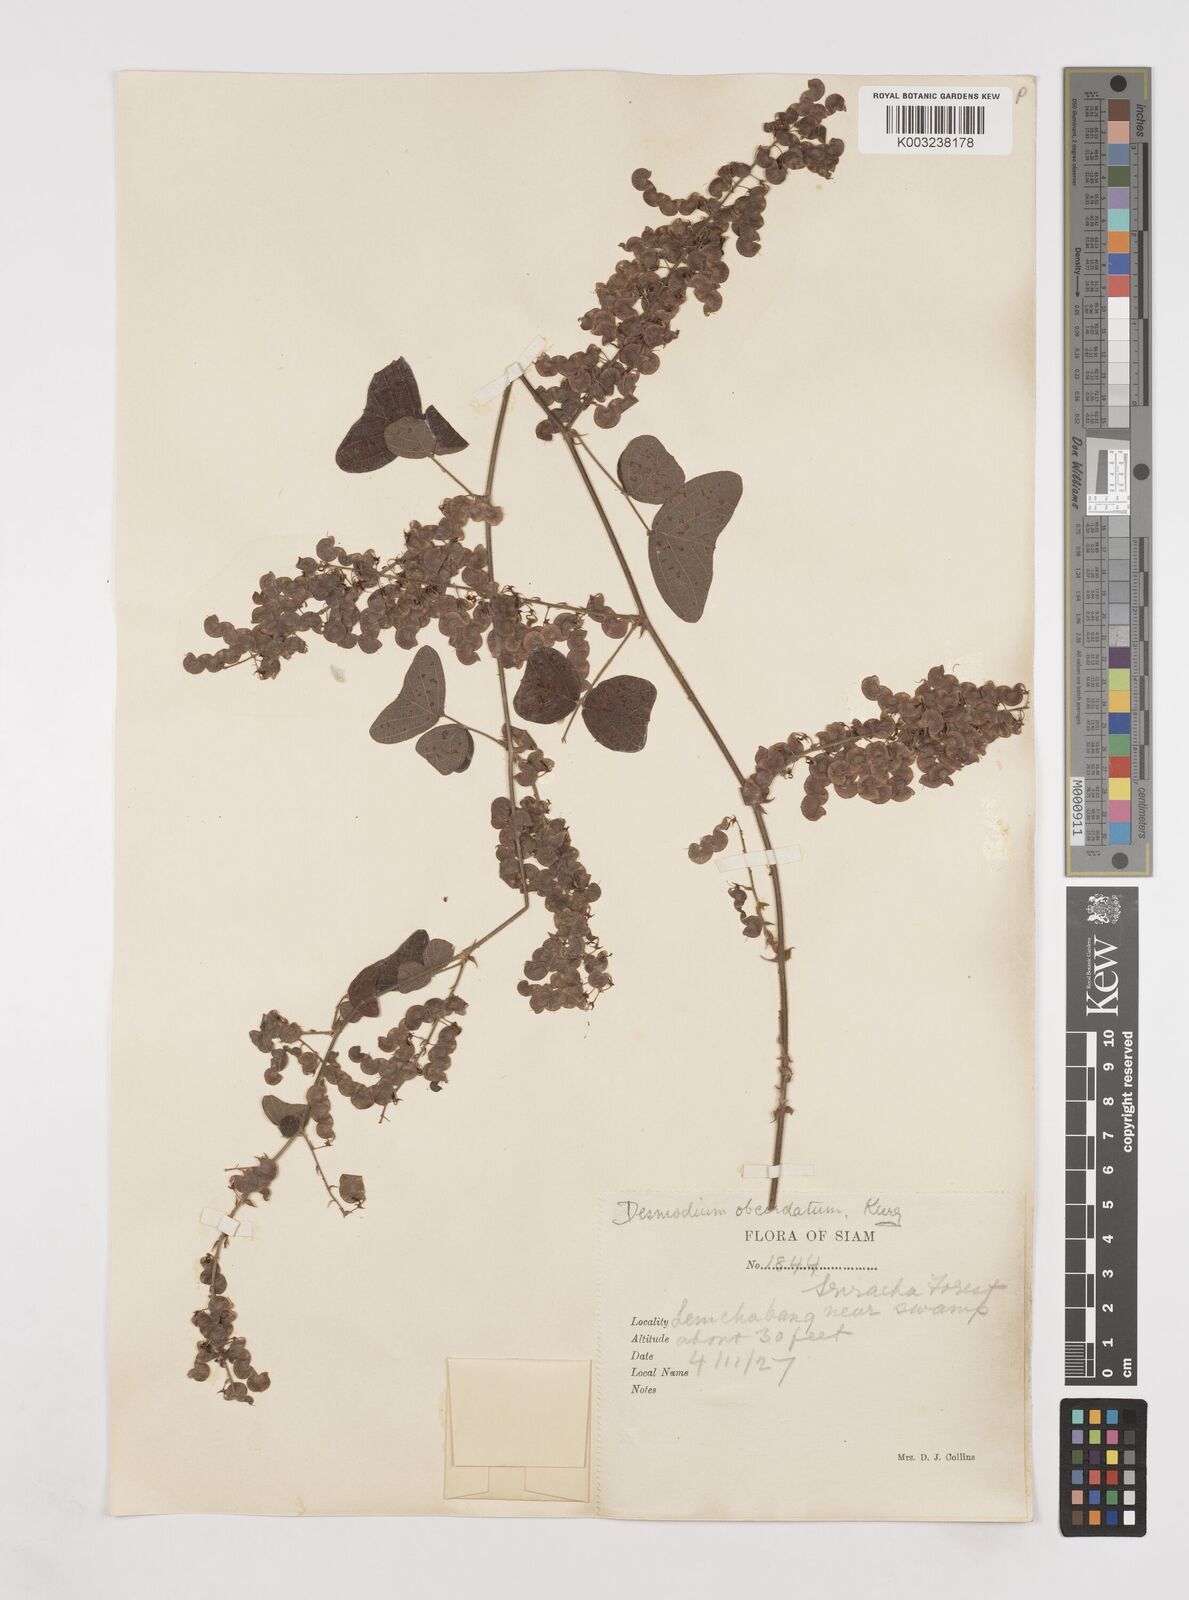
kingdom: Plantae
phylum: Tracheophyta
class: Magnoliopsida
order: Fabales
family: Fabaceae
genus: Hegnera
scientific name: Hegnera obcordata
